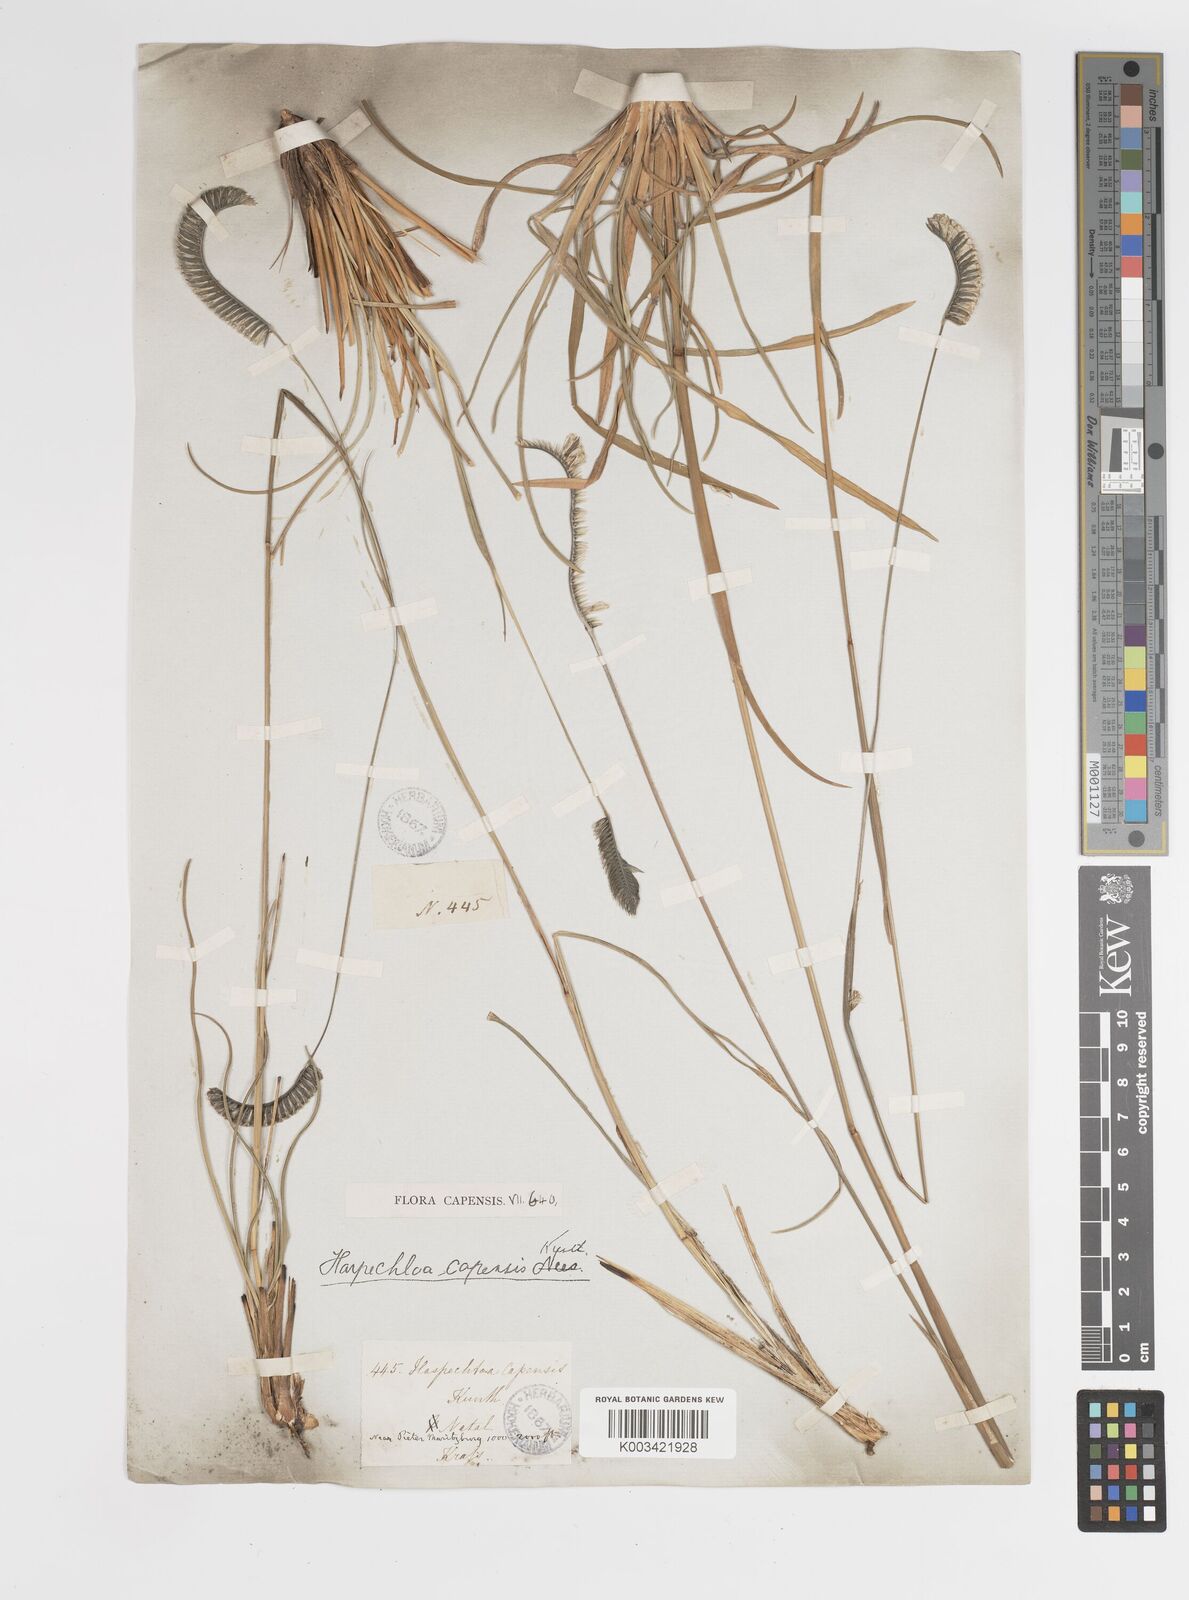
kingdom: Plantae
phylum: Tracheophyta
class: Liliopsida
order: Poales
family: Poaceae
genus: Harpochloa
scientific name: Harpochloa falx
